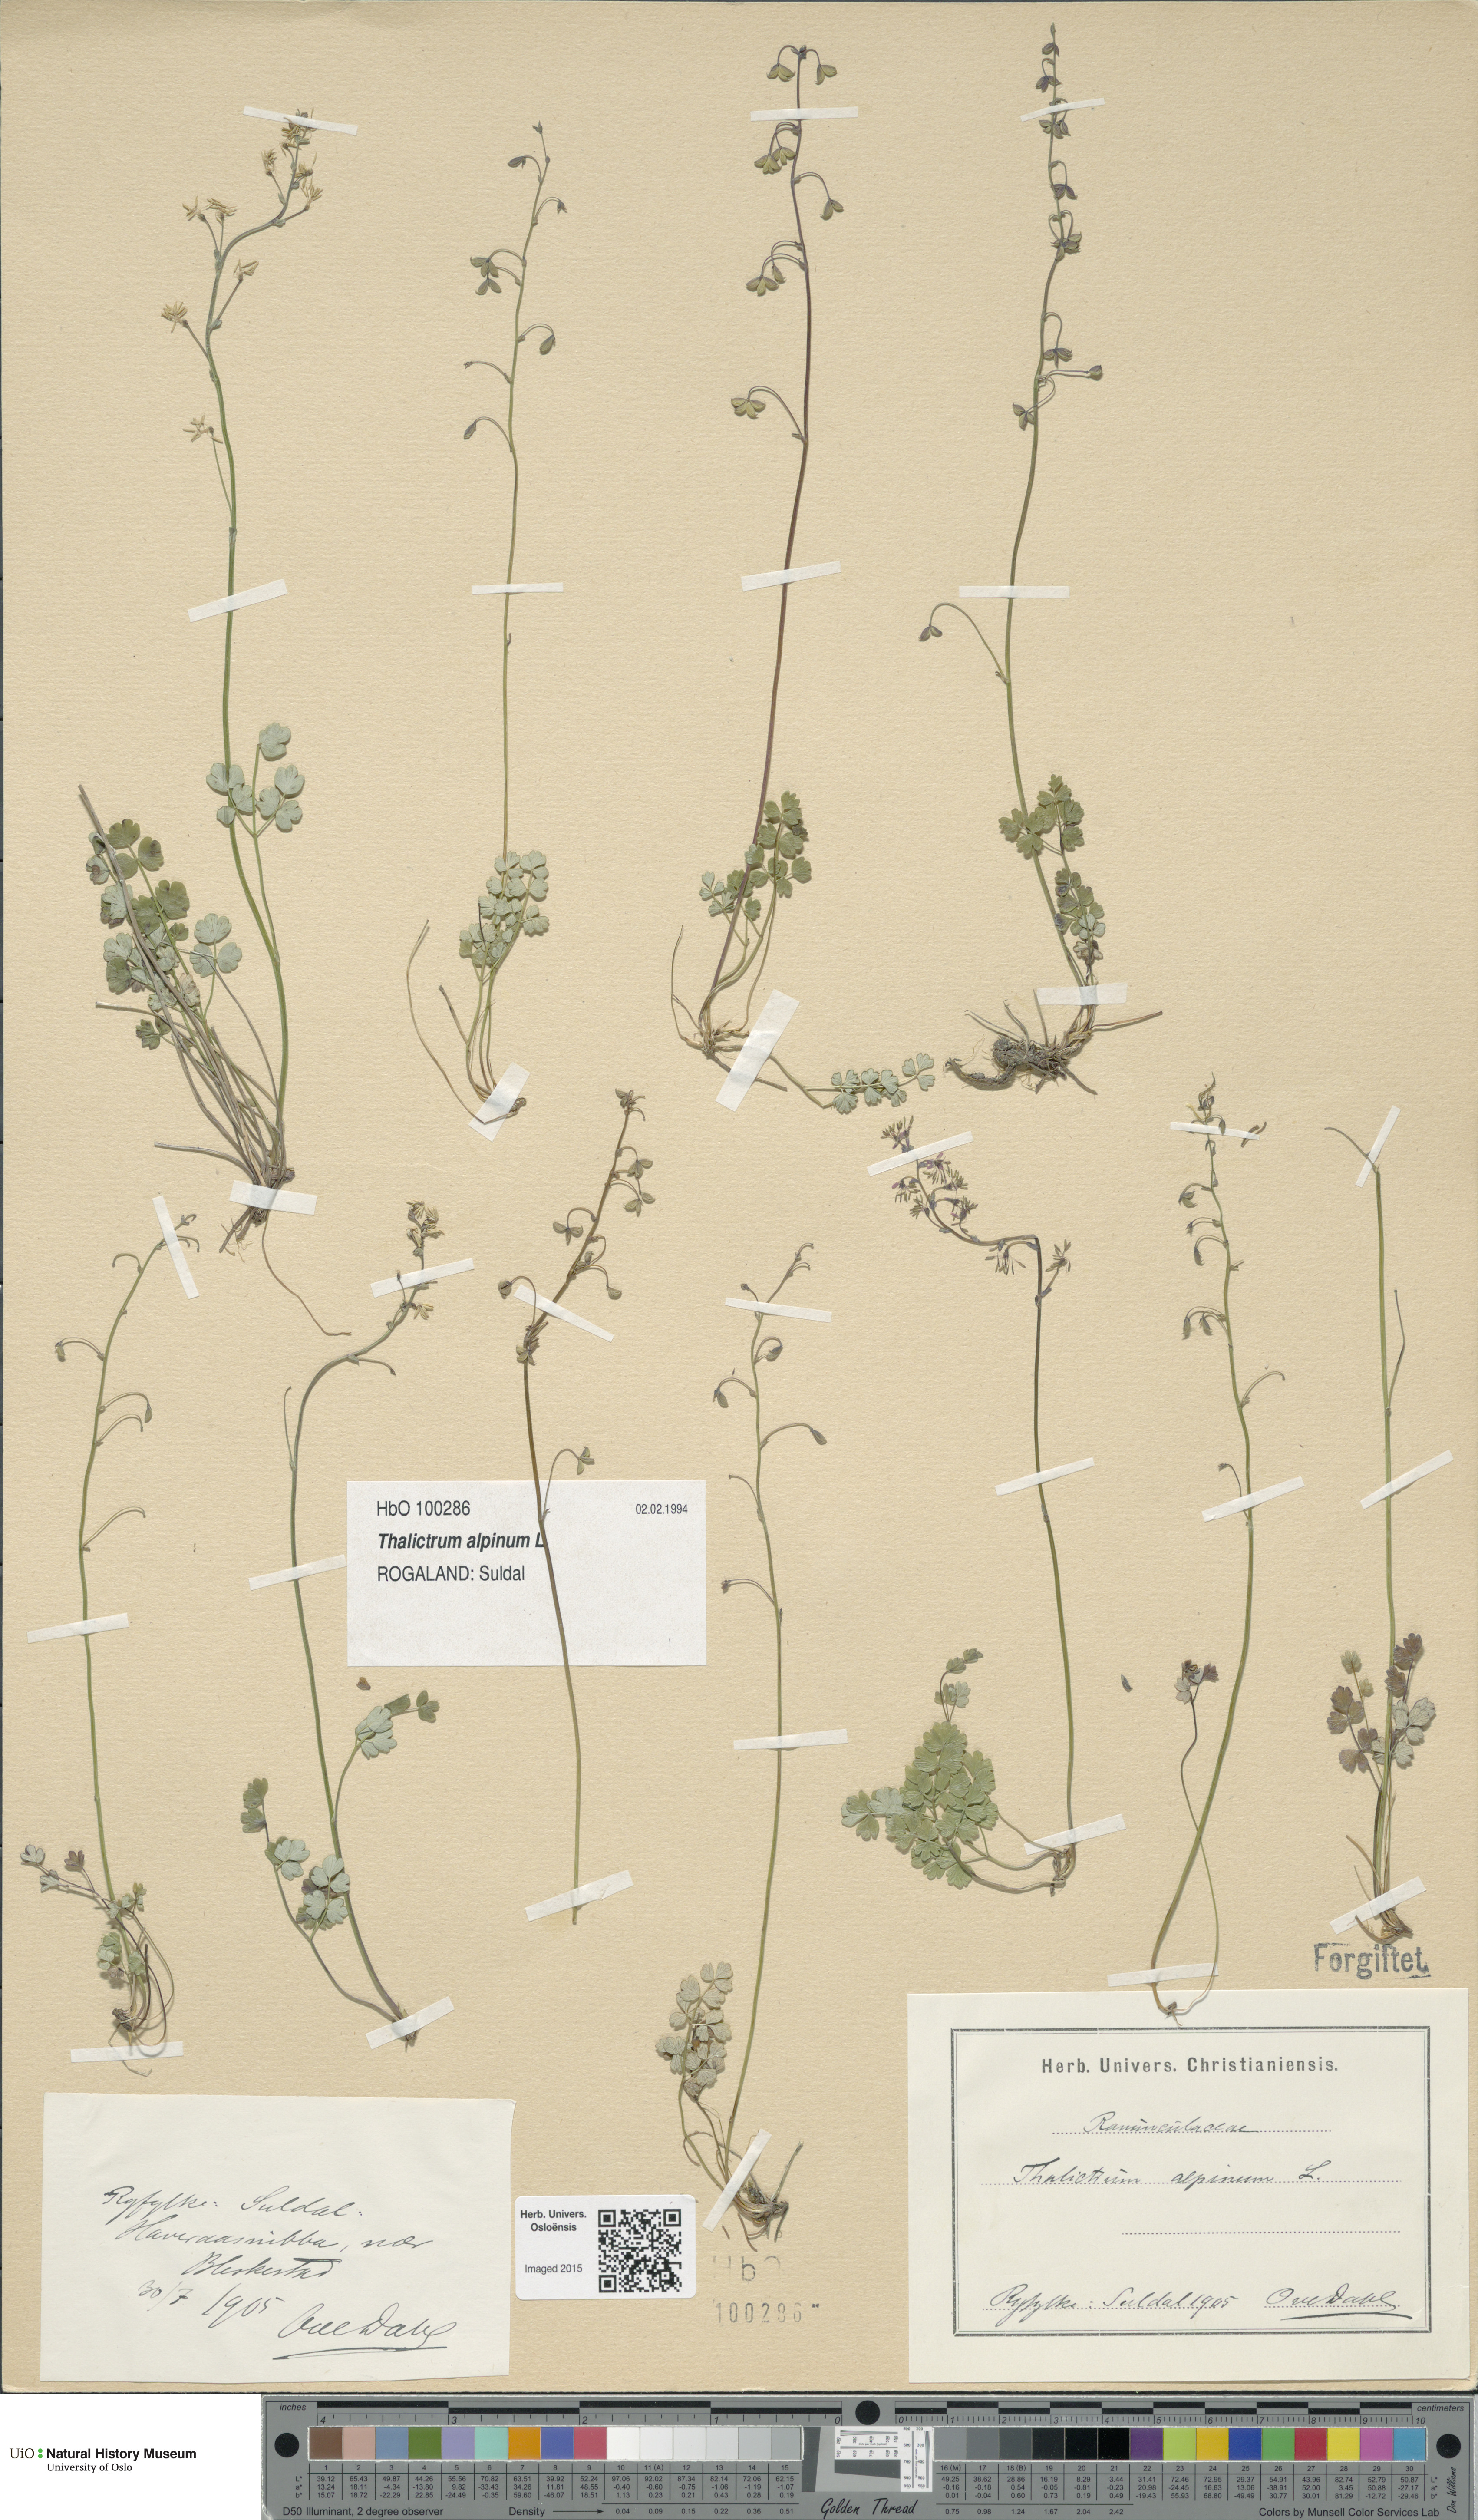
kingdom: Plantae
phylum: Tracheophyta
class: Magnoliopsida
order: Ranunculales
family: Ranunculaceae
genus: Thalictrum
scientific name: Thalictrum alpinum
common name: Alpine meadow-rue
